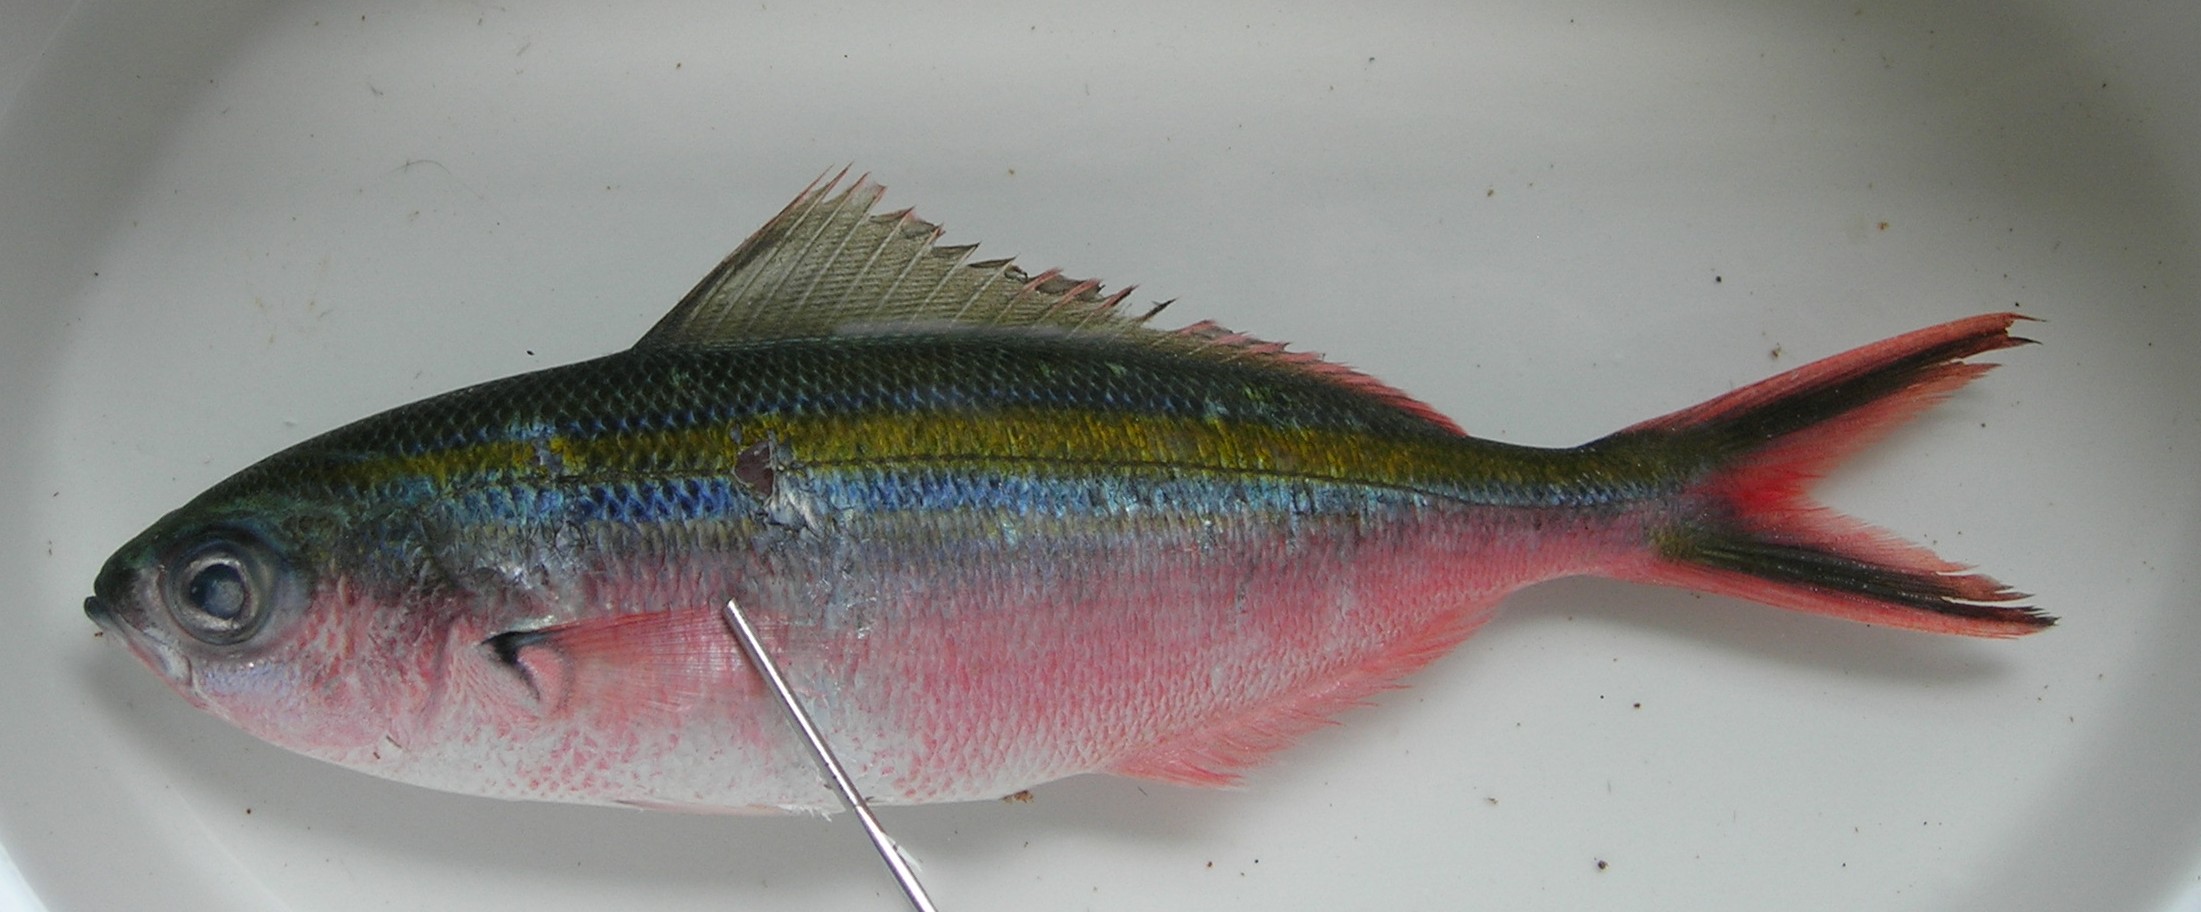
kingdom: Animalia
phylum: Chordata
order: Perciformes
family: Caesionidae
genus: Caesio
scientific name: Caesio caerulaurea
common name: Blue and gold fusilier
